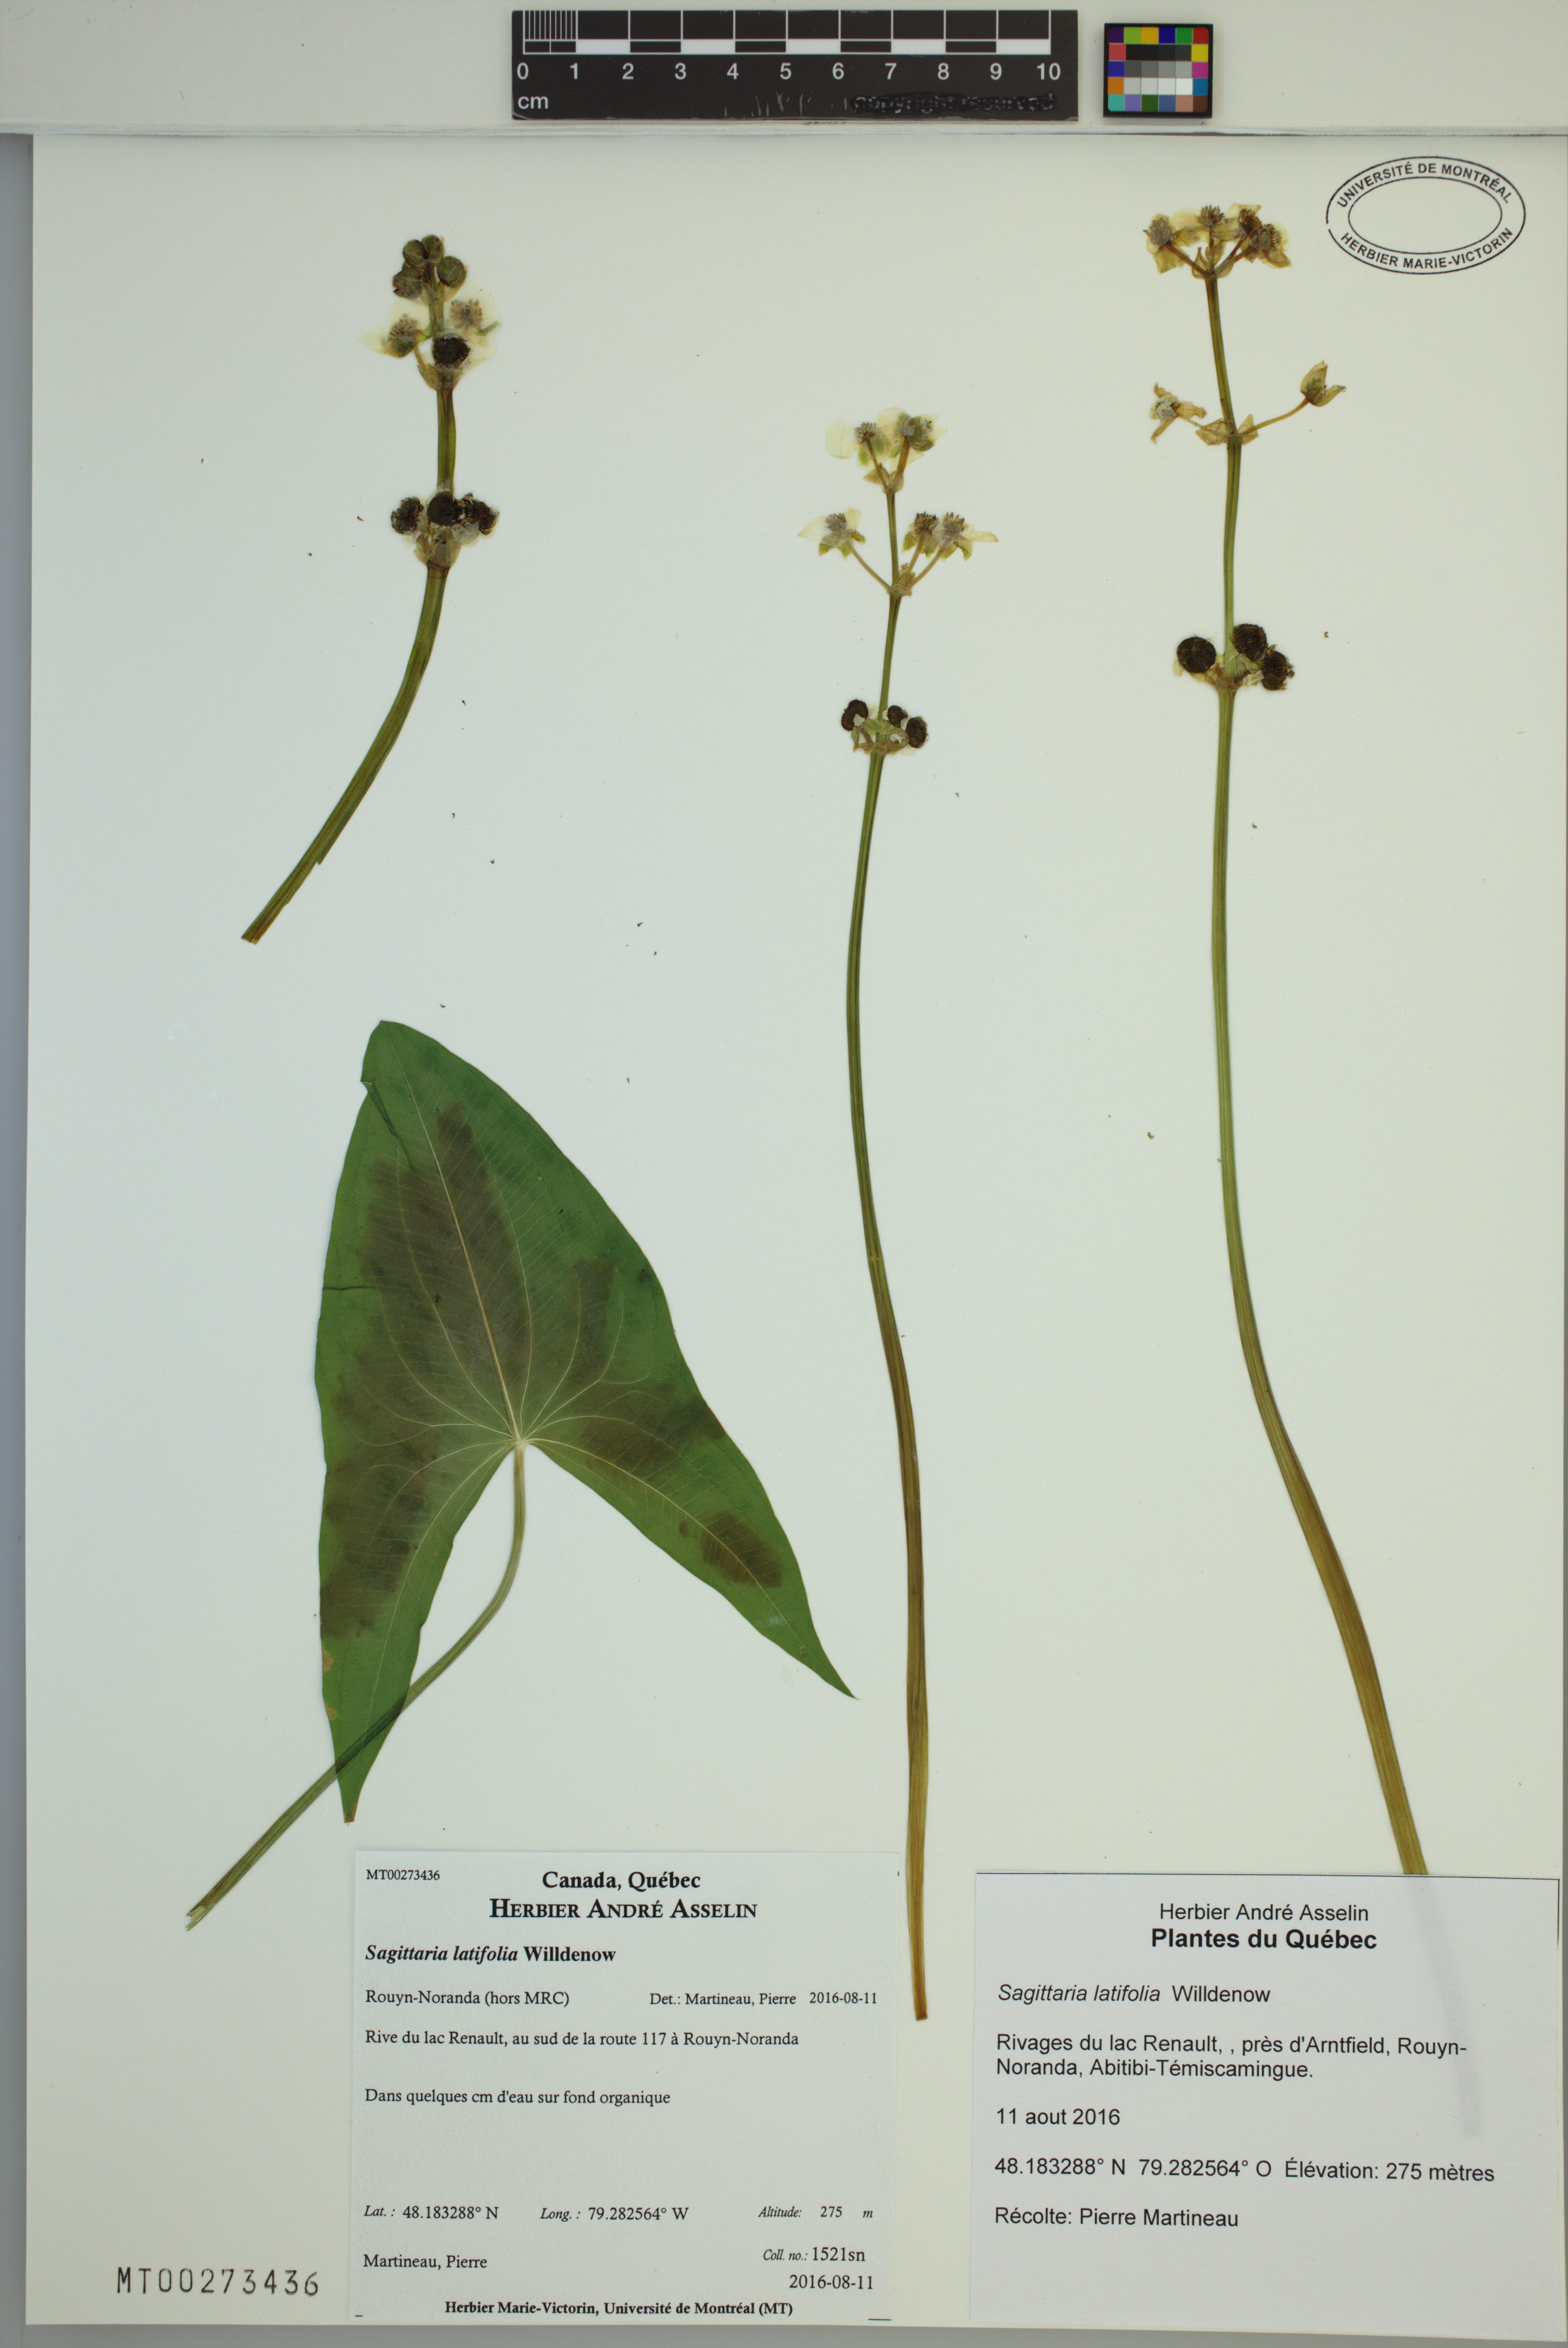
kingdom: Plantae
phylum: Tracheophyta
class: Liliopsida
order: Alismatales
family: Alismataceae
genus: Sagittaria
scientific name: Sagittaria latifolia
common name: Duck-potato
